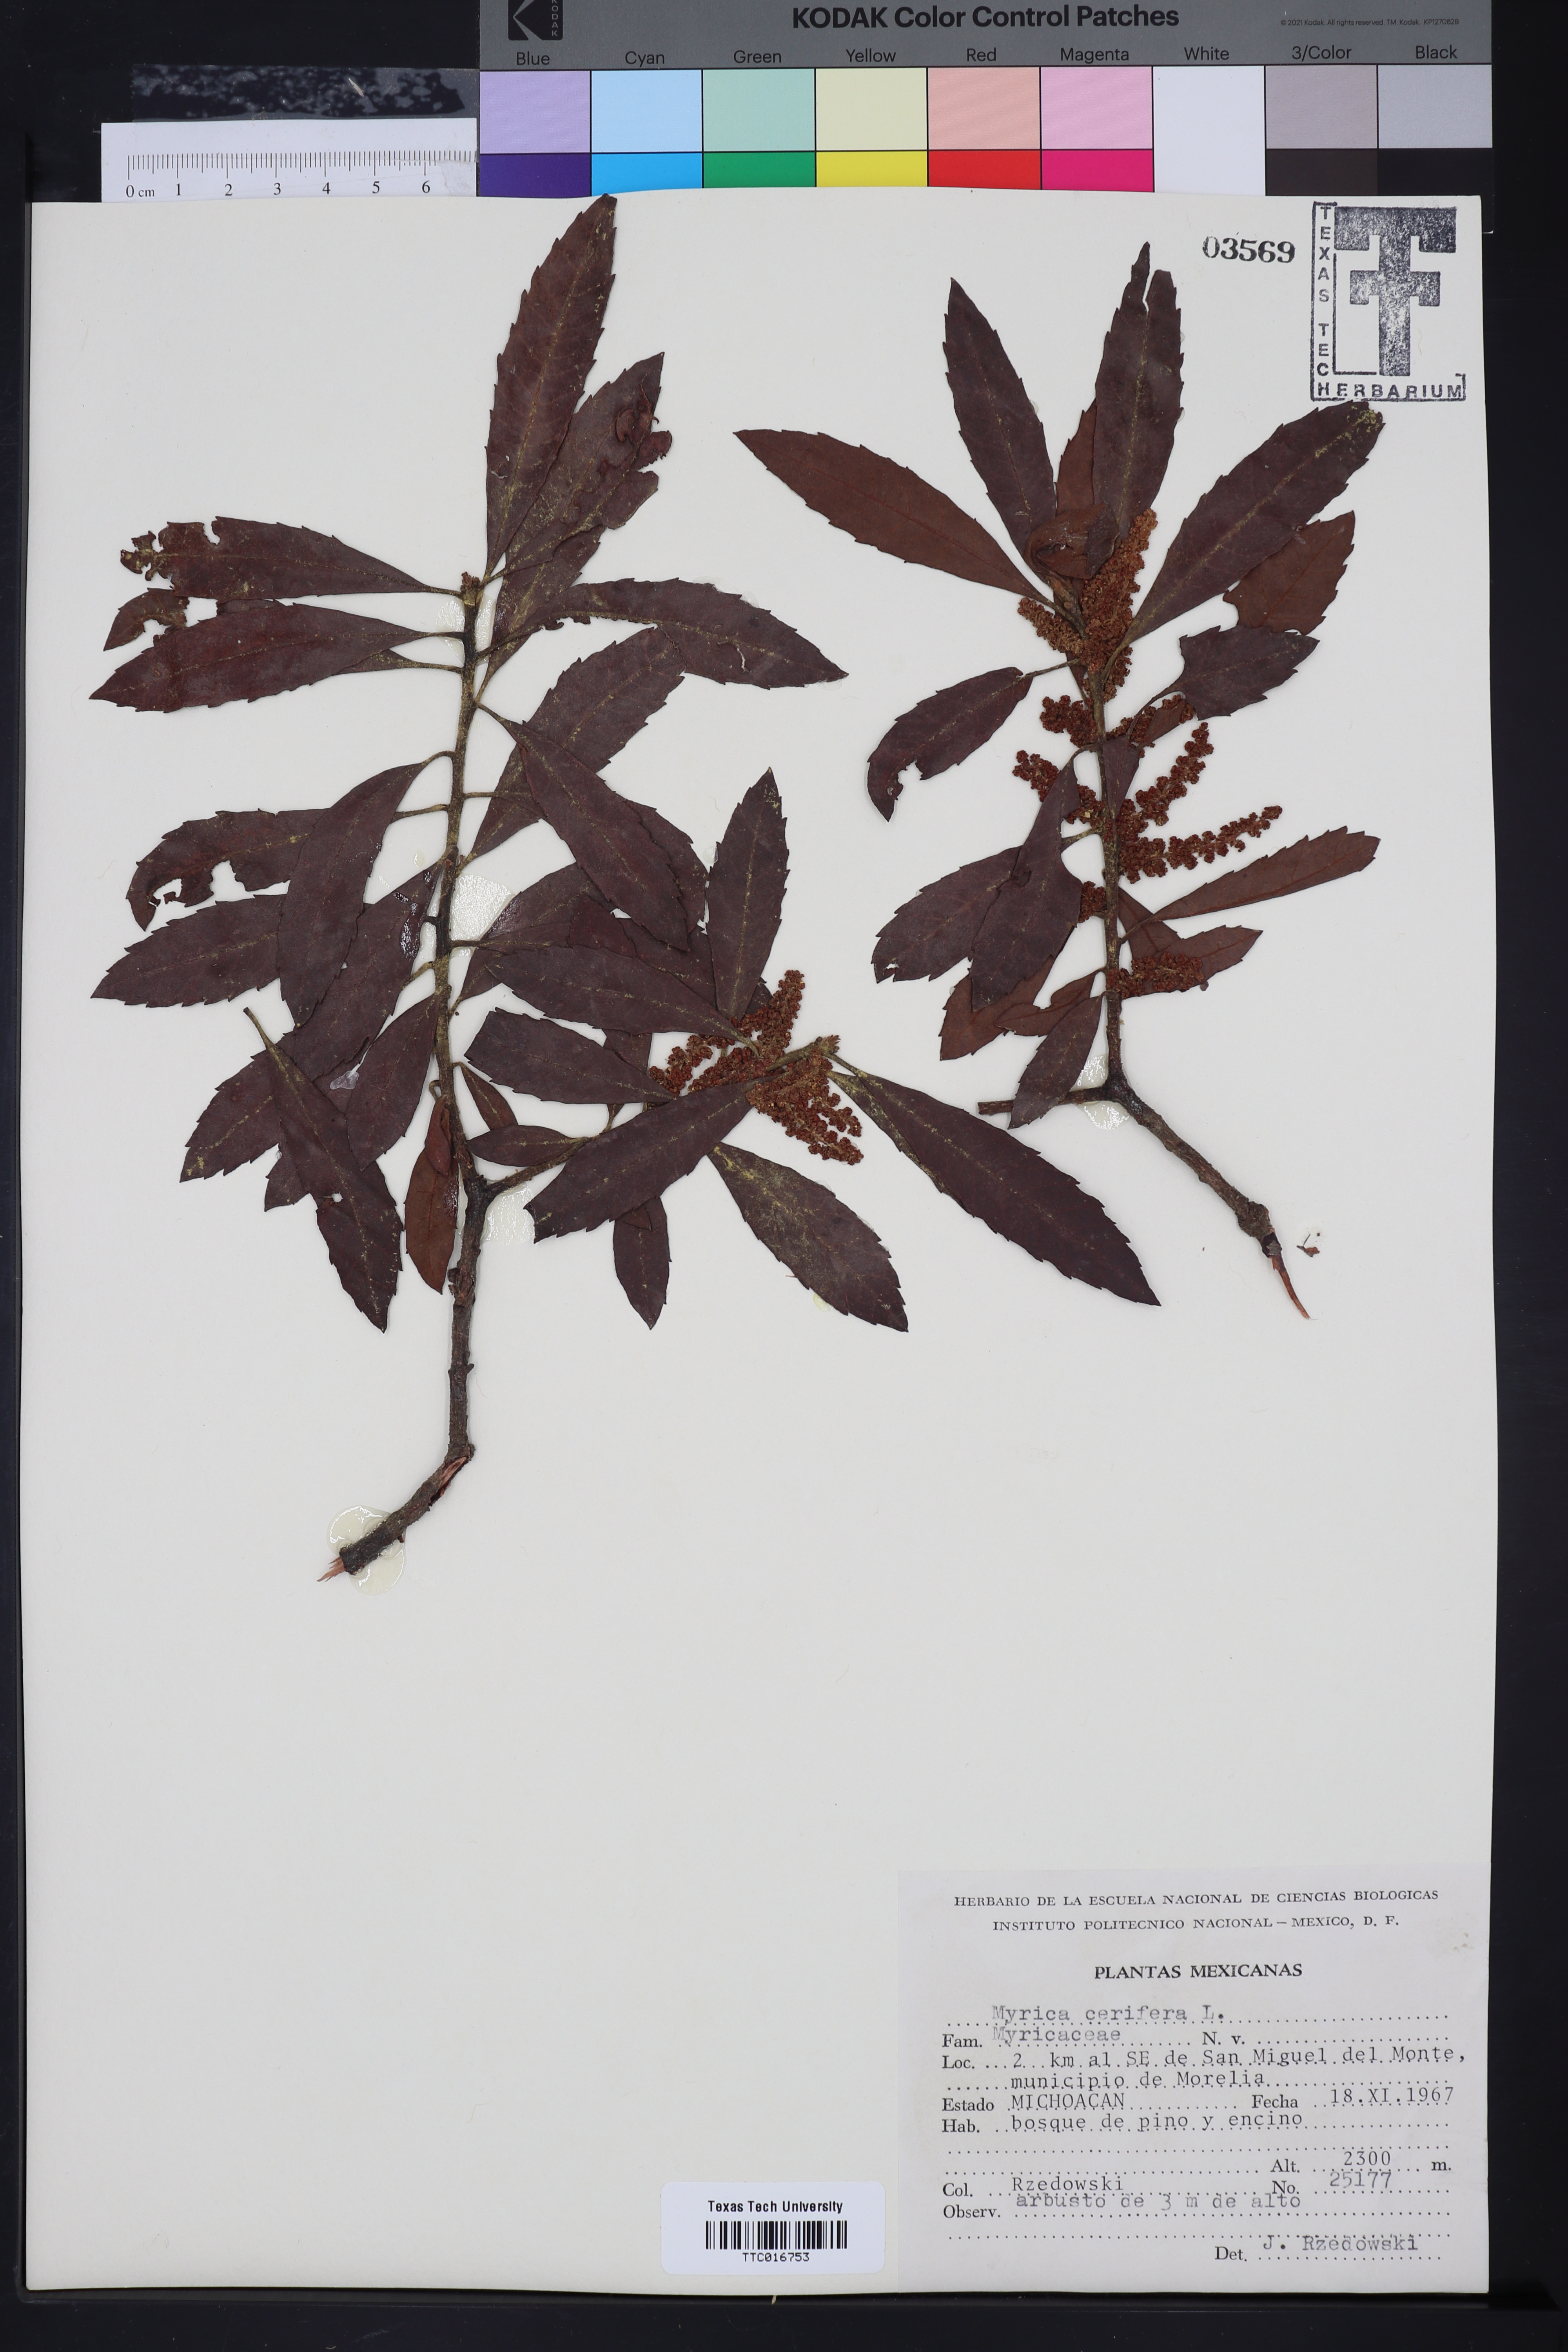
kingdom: Plantae
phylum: Tracheophyta
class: Magnoliopsida
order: Fagales
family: Myricaceae
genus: Morella
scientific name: Morella cerifera
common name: Wax myrtle
